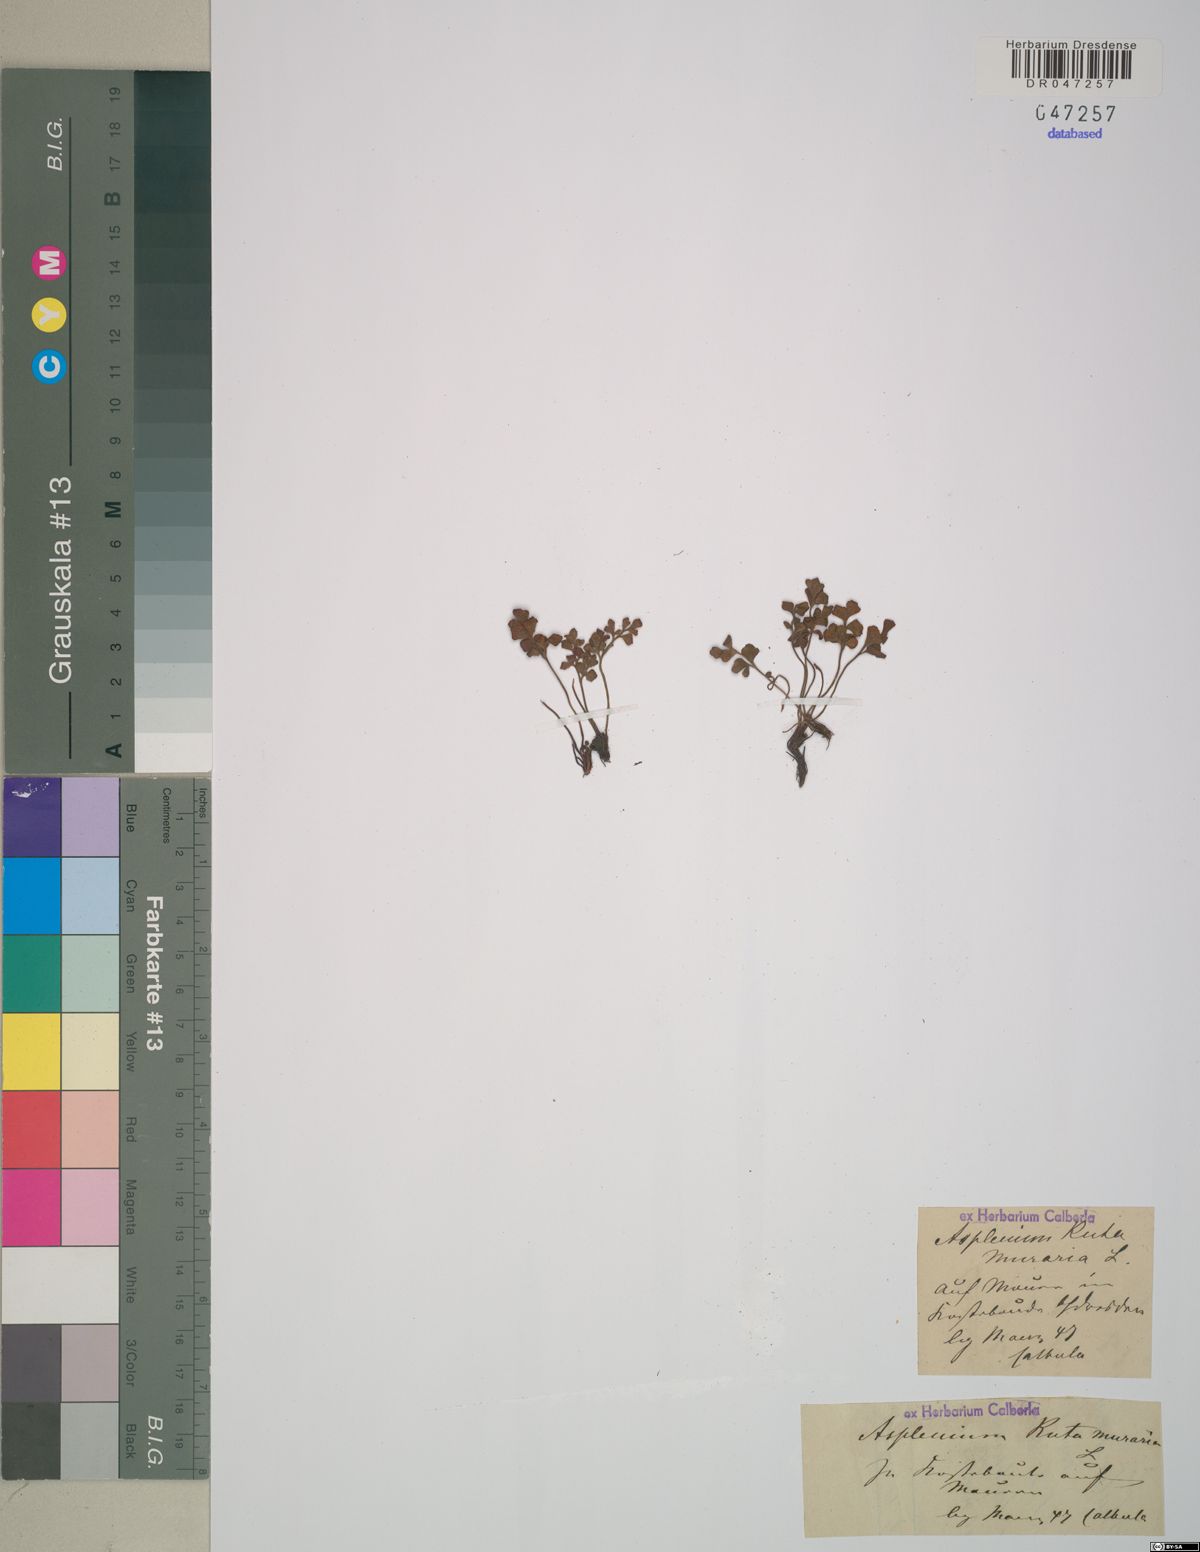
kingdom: Plantae
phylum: Tracheophyta
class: Polypodiopsida
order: Polypodiales
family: Aspleniaceae
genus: Asplenium
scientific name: Asplenium ruta-muraria
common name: Wall-rue
